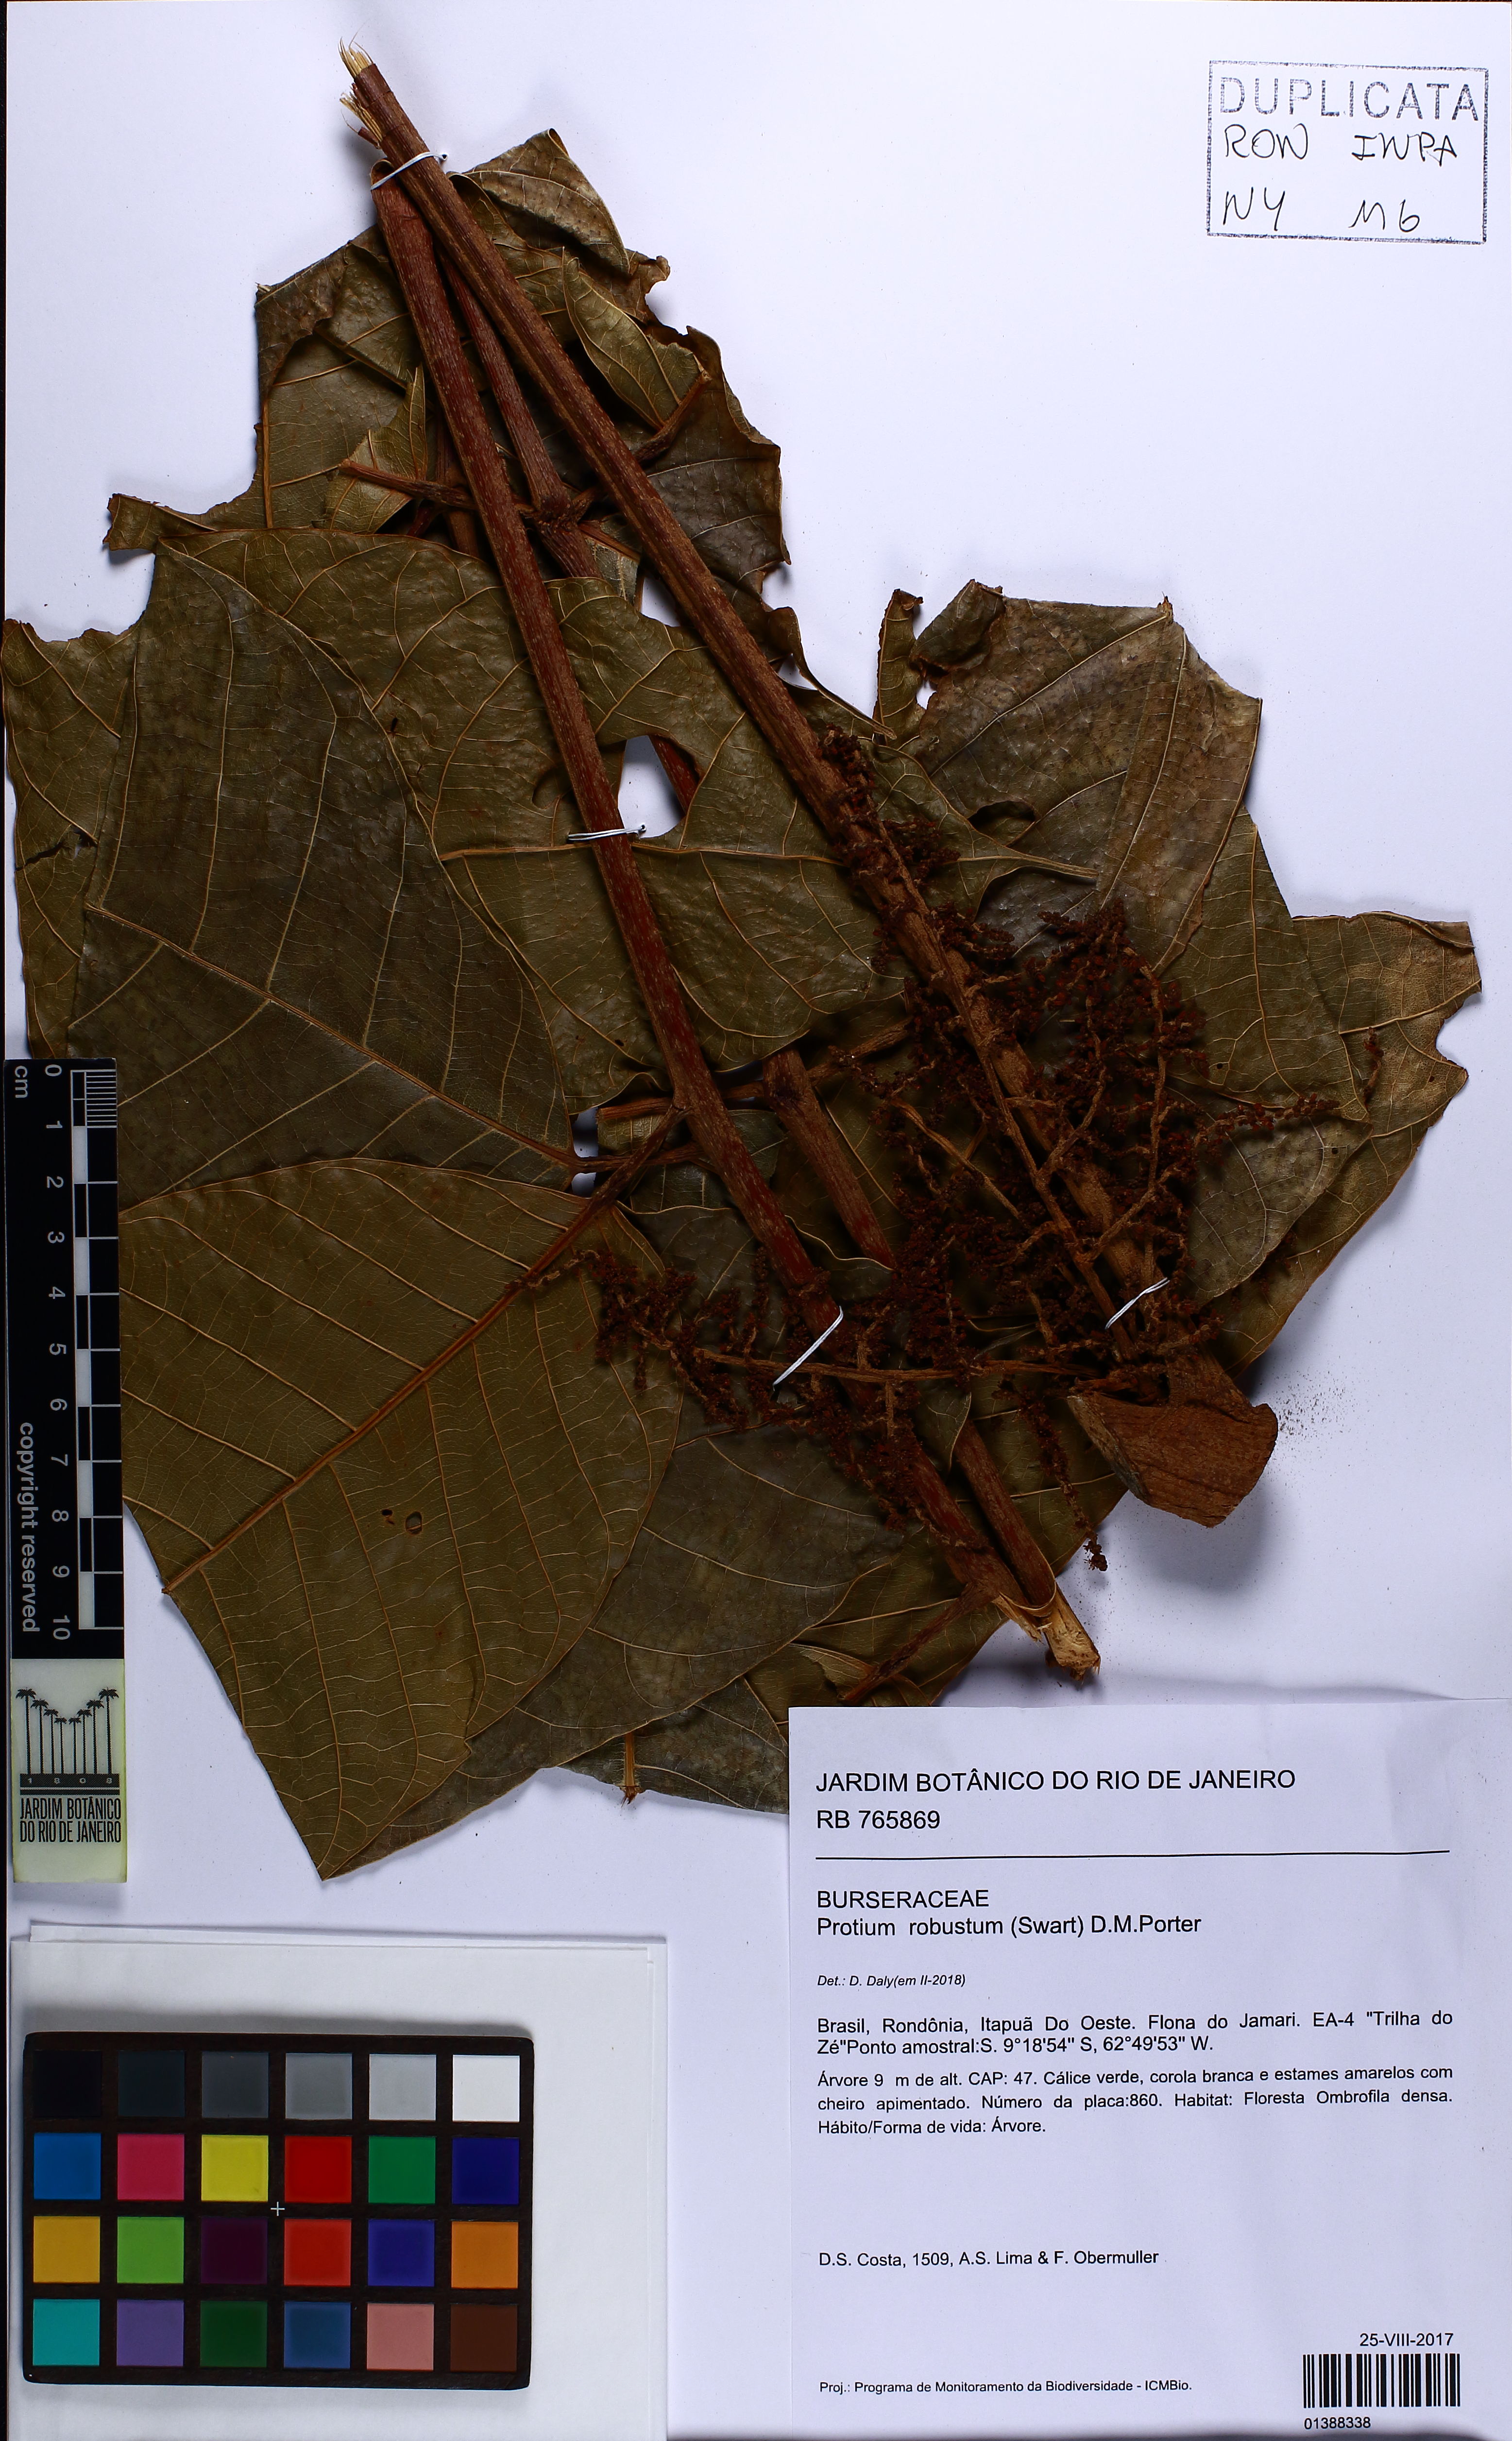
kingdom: Plantae
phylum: Tracheophyta
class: Magnoliopsida
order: Sapindales
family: Burseraceae
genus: Protium
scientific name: Protium robustum
